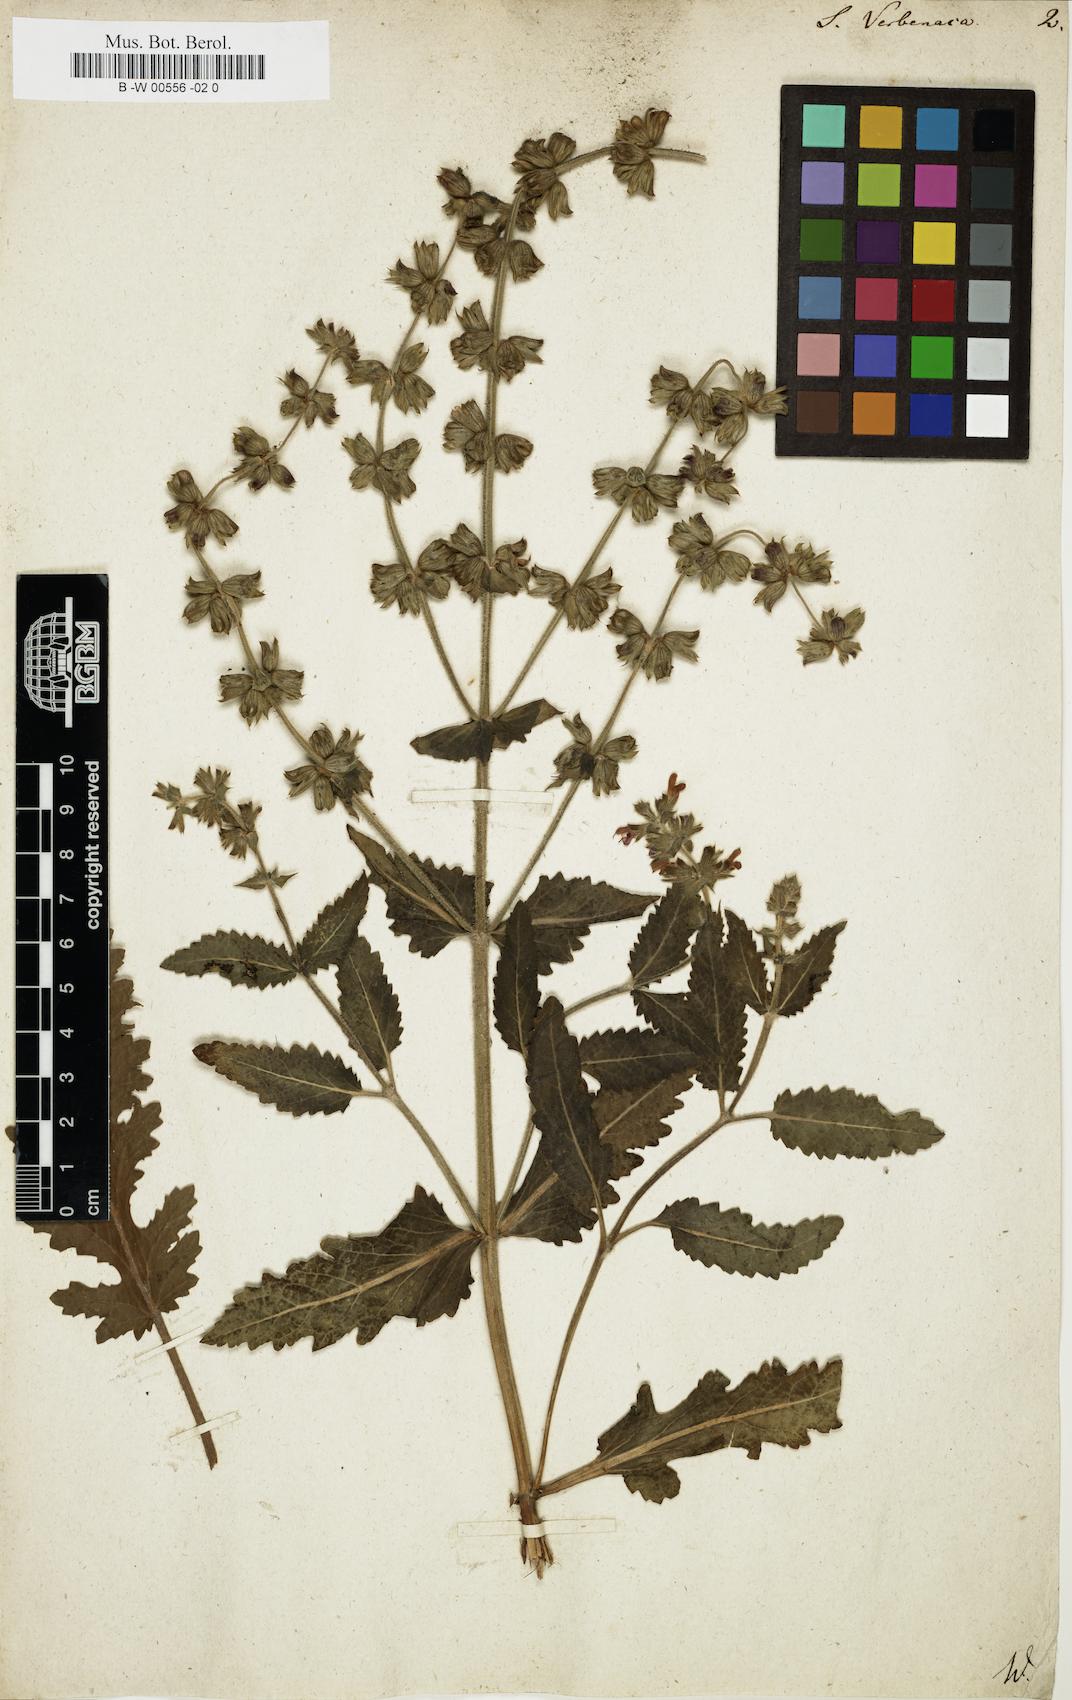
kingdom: Plantae
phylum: Tracheophyta
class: Magnoliopsida
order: Lamiales
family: Lamiaceae
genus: Salvia
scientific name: Salvia verbenaca
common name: Wild clary
